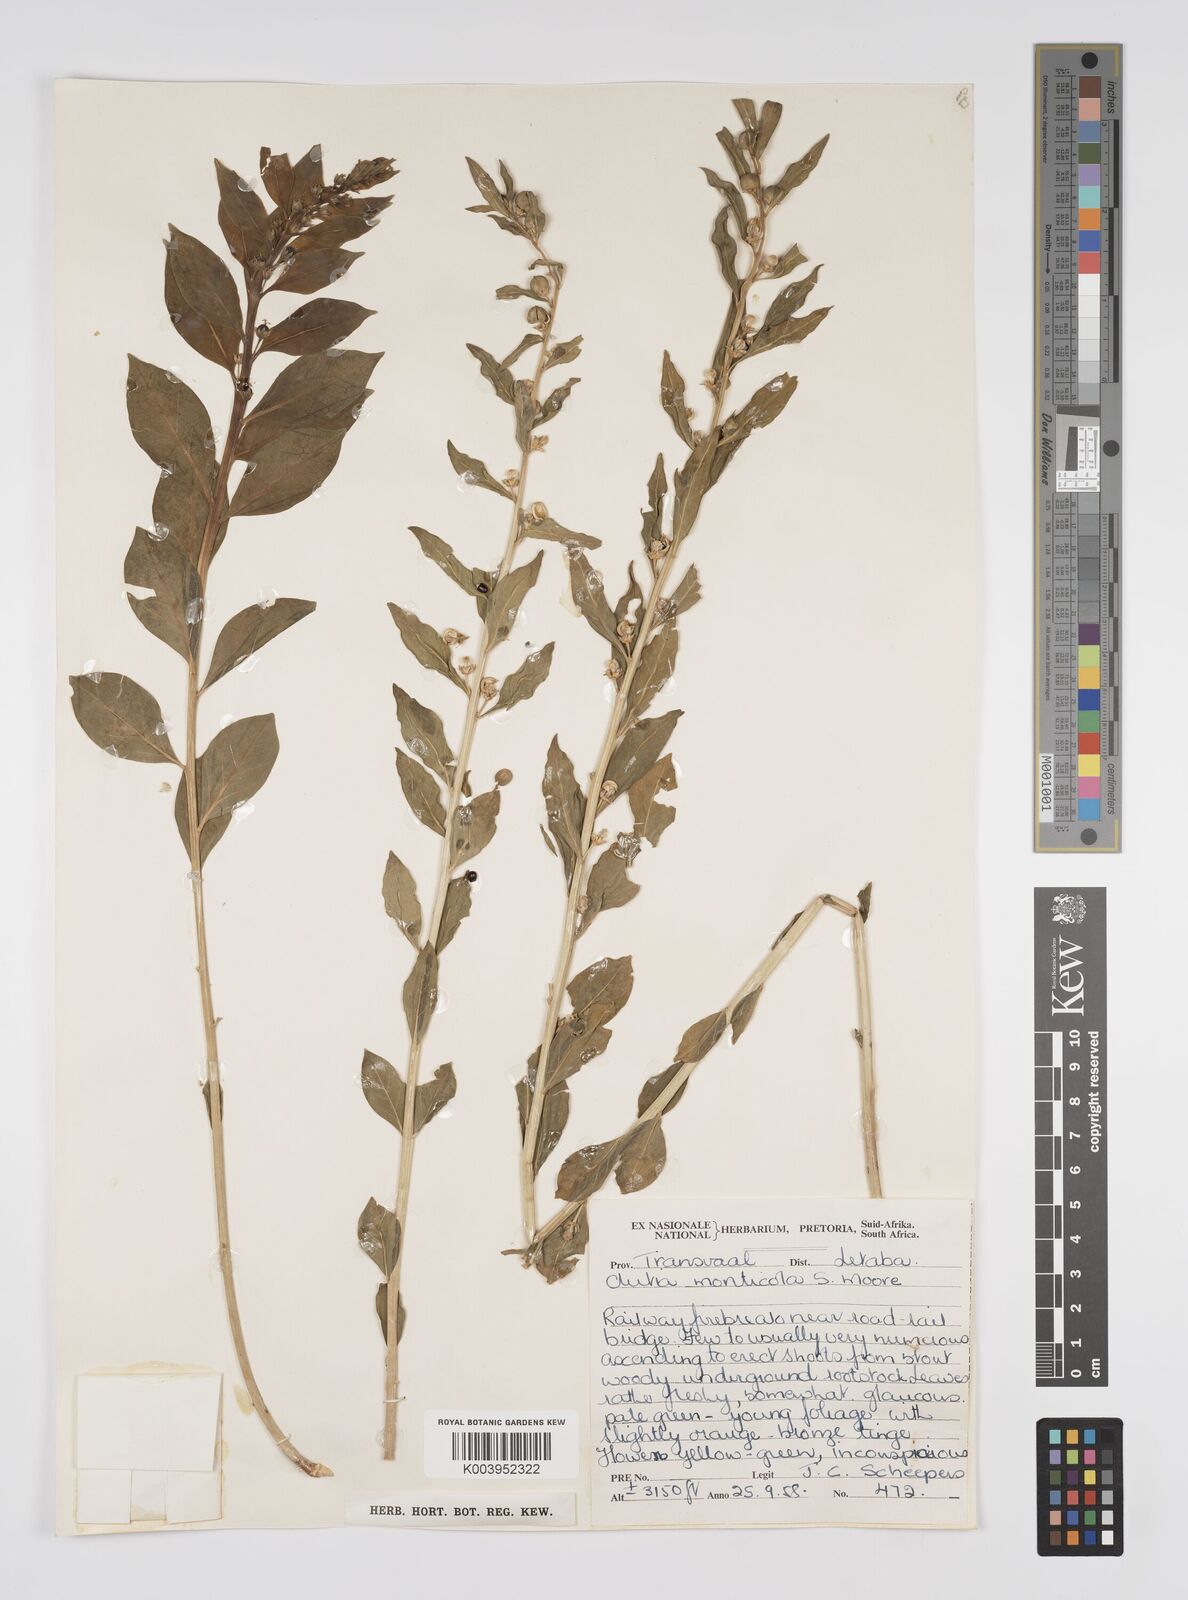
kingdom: Plantae
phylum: Tracheophyta
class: Magnoliopsida
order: Malpighiales
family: Peraceae
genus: Clutia
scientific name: Clutia
